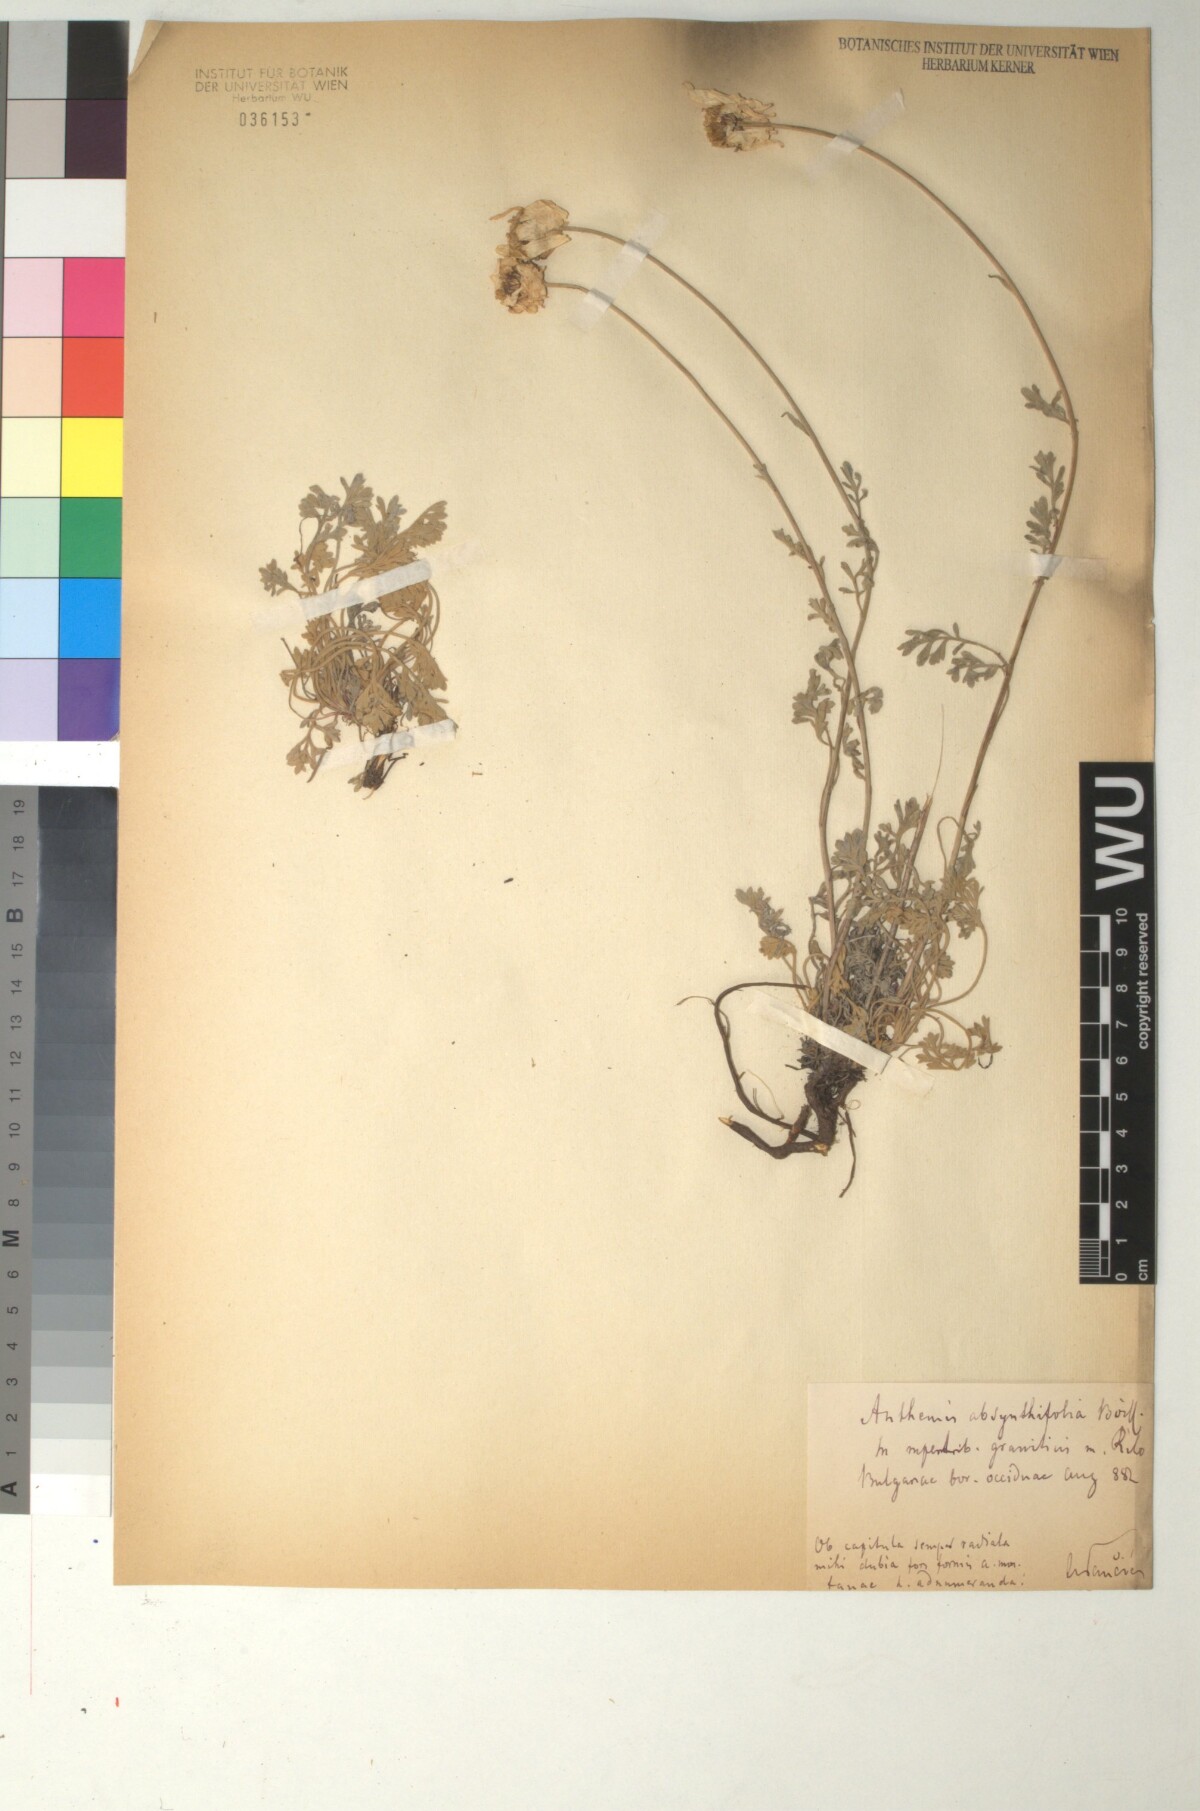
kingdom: Plantae
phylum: Tracheophyta
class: Magnoliopsida
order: Asterales
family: Asteraceae
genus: Anthemis
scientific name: Anthemis cretica
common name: Mountain dog-daisy
